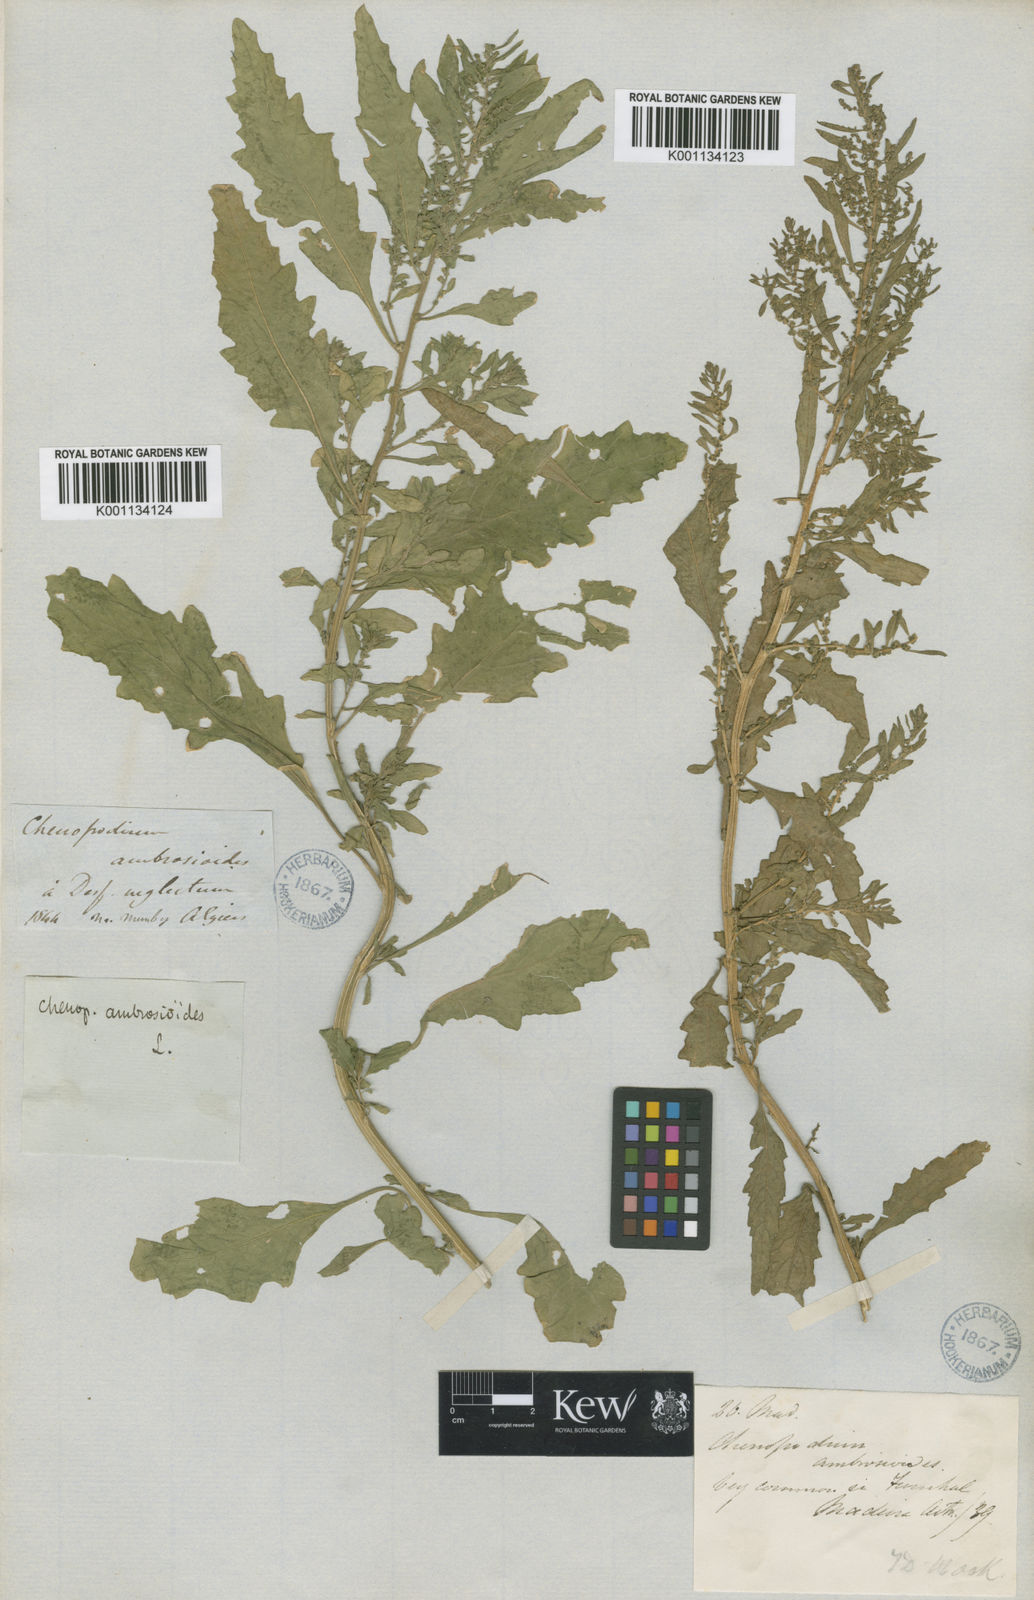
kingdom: Plantae
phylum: Tracheophyta
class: Magnoliopsida
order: Caryophyllales
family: Amaranthaceae
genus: Dysphania
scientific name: Dysphania ambrosioides
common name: Wormseed
